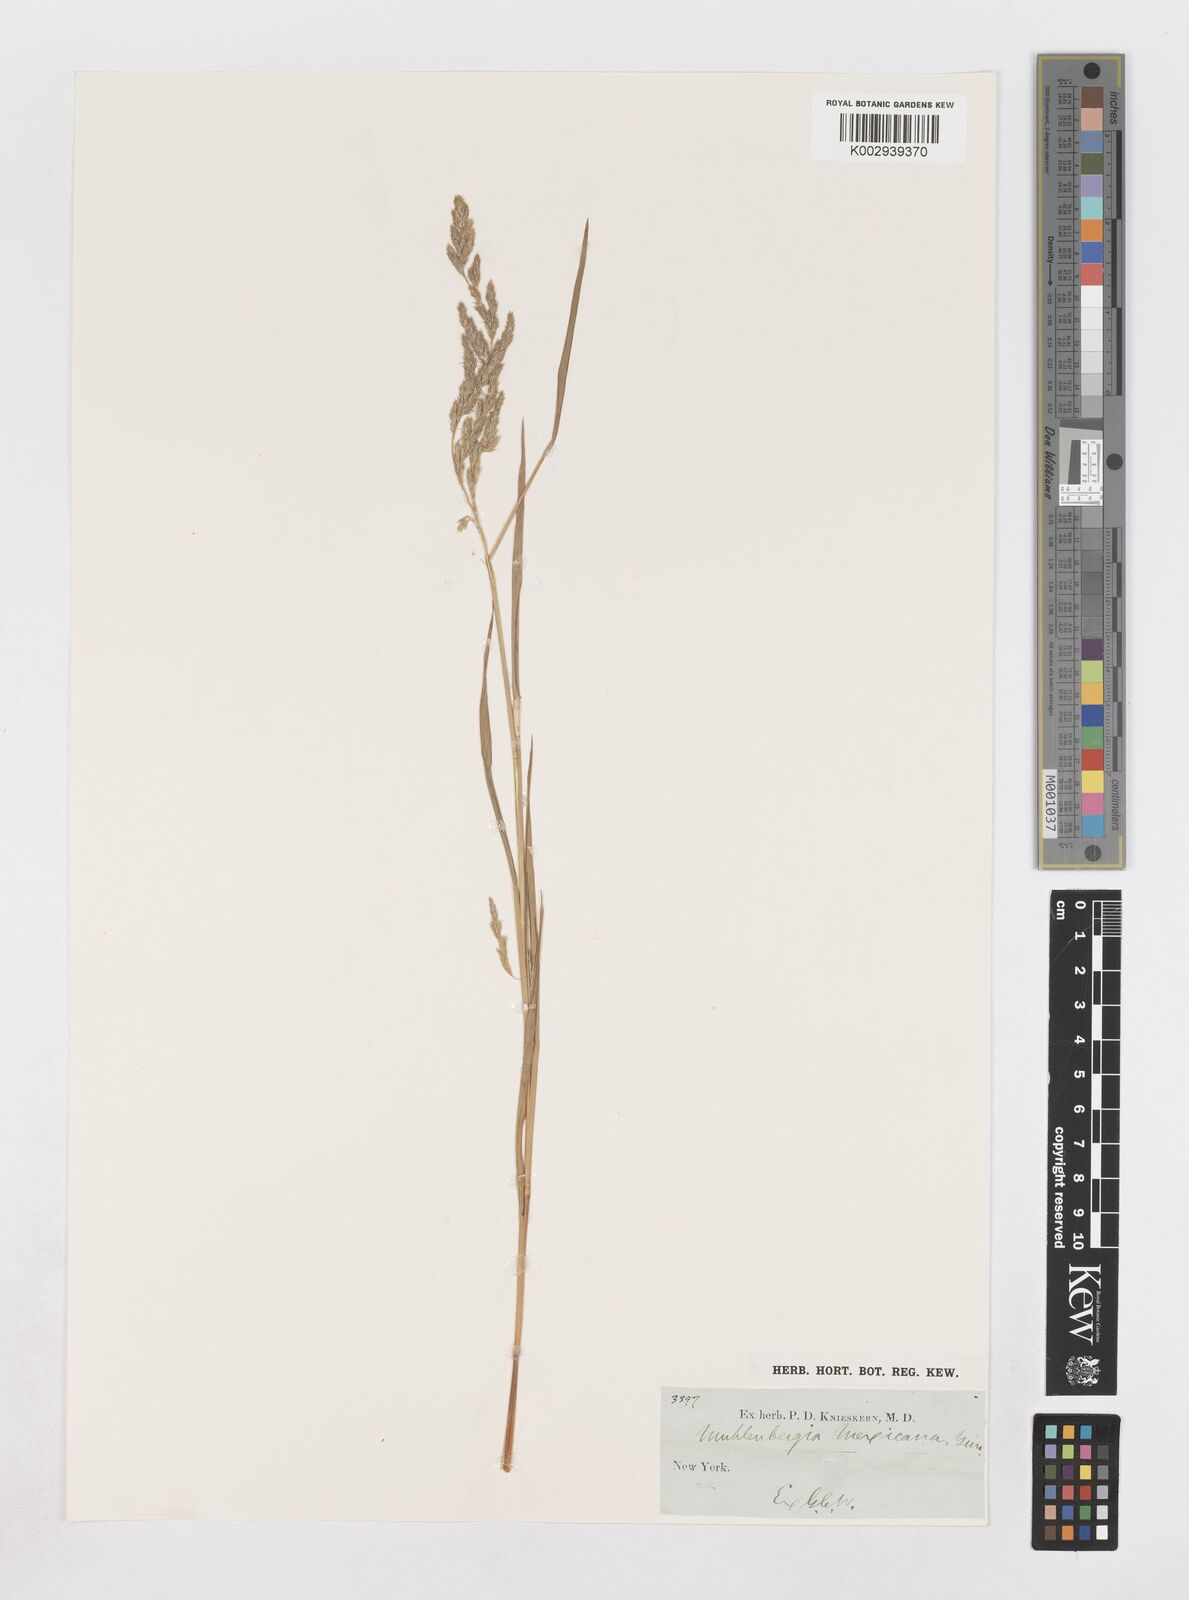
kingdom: Plantae
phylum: Tracheophyta
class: Liliopsida
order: Poales
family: Poaceae
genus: Muhlenbergia
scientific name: Muhlenbergia mexicana
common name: Mexican muhly
